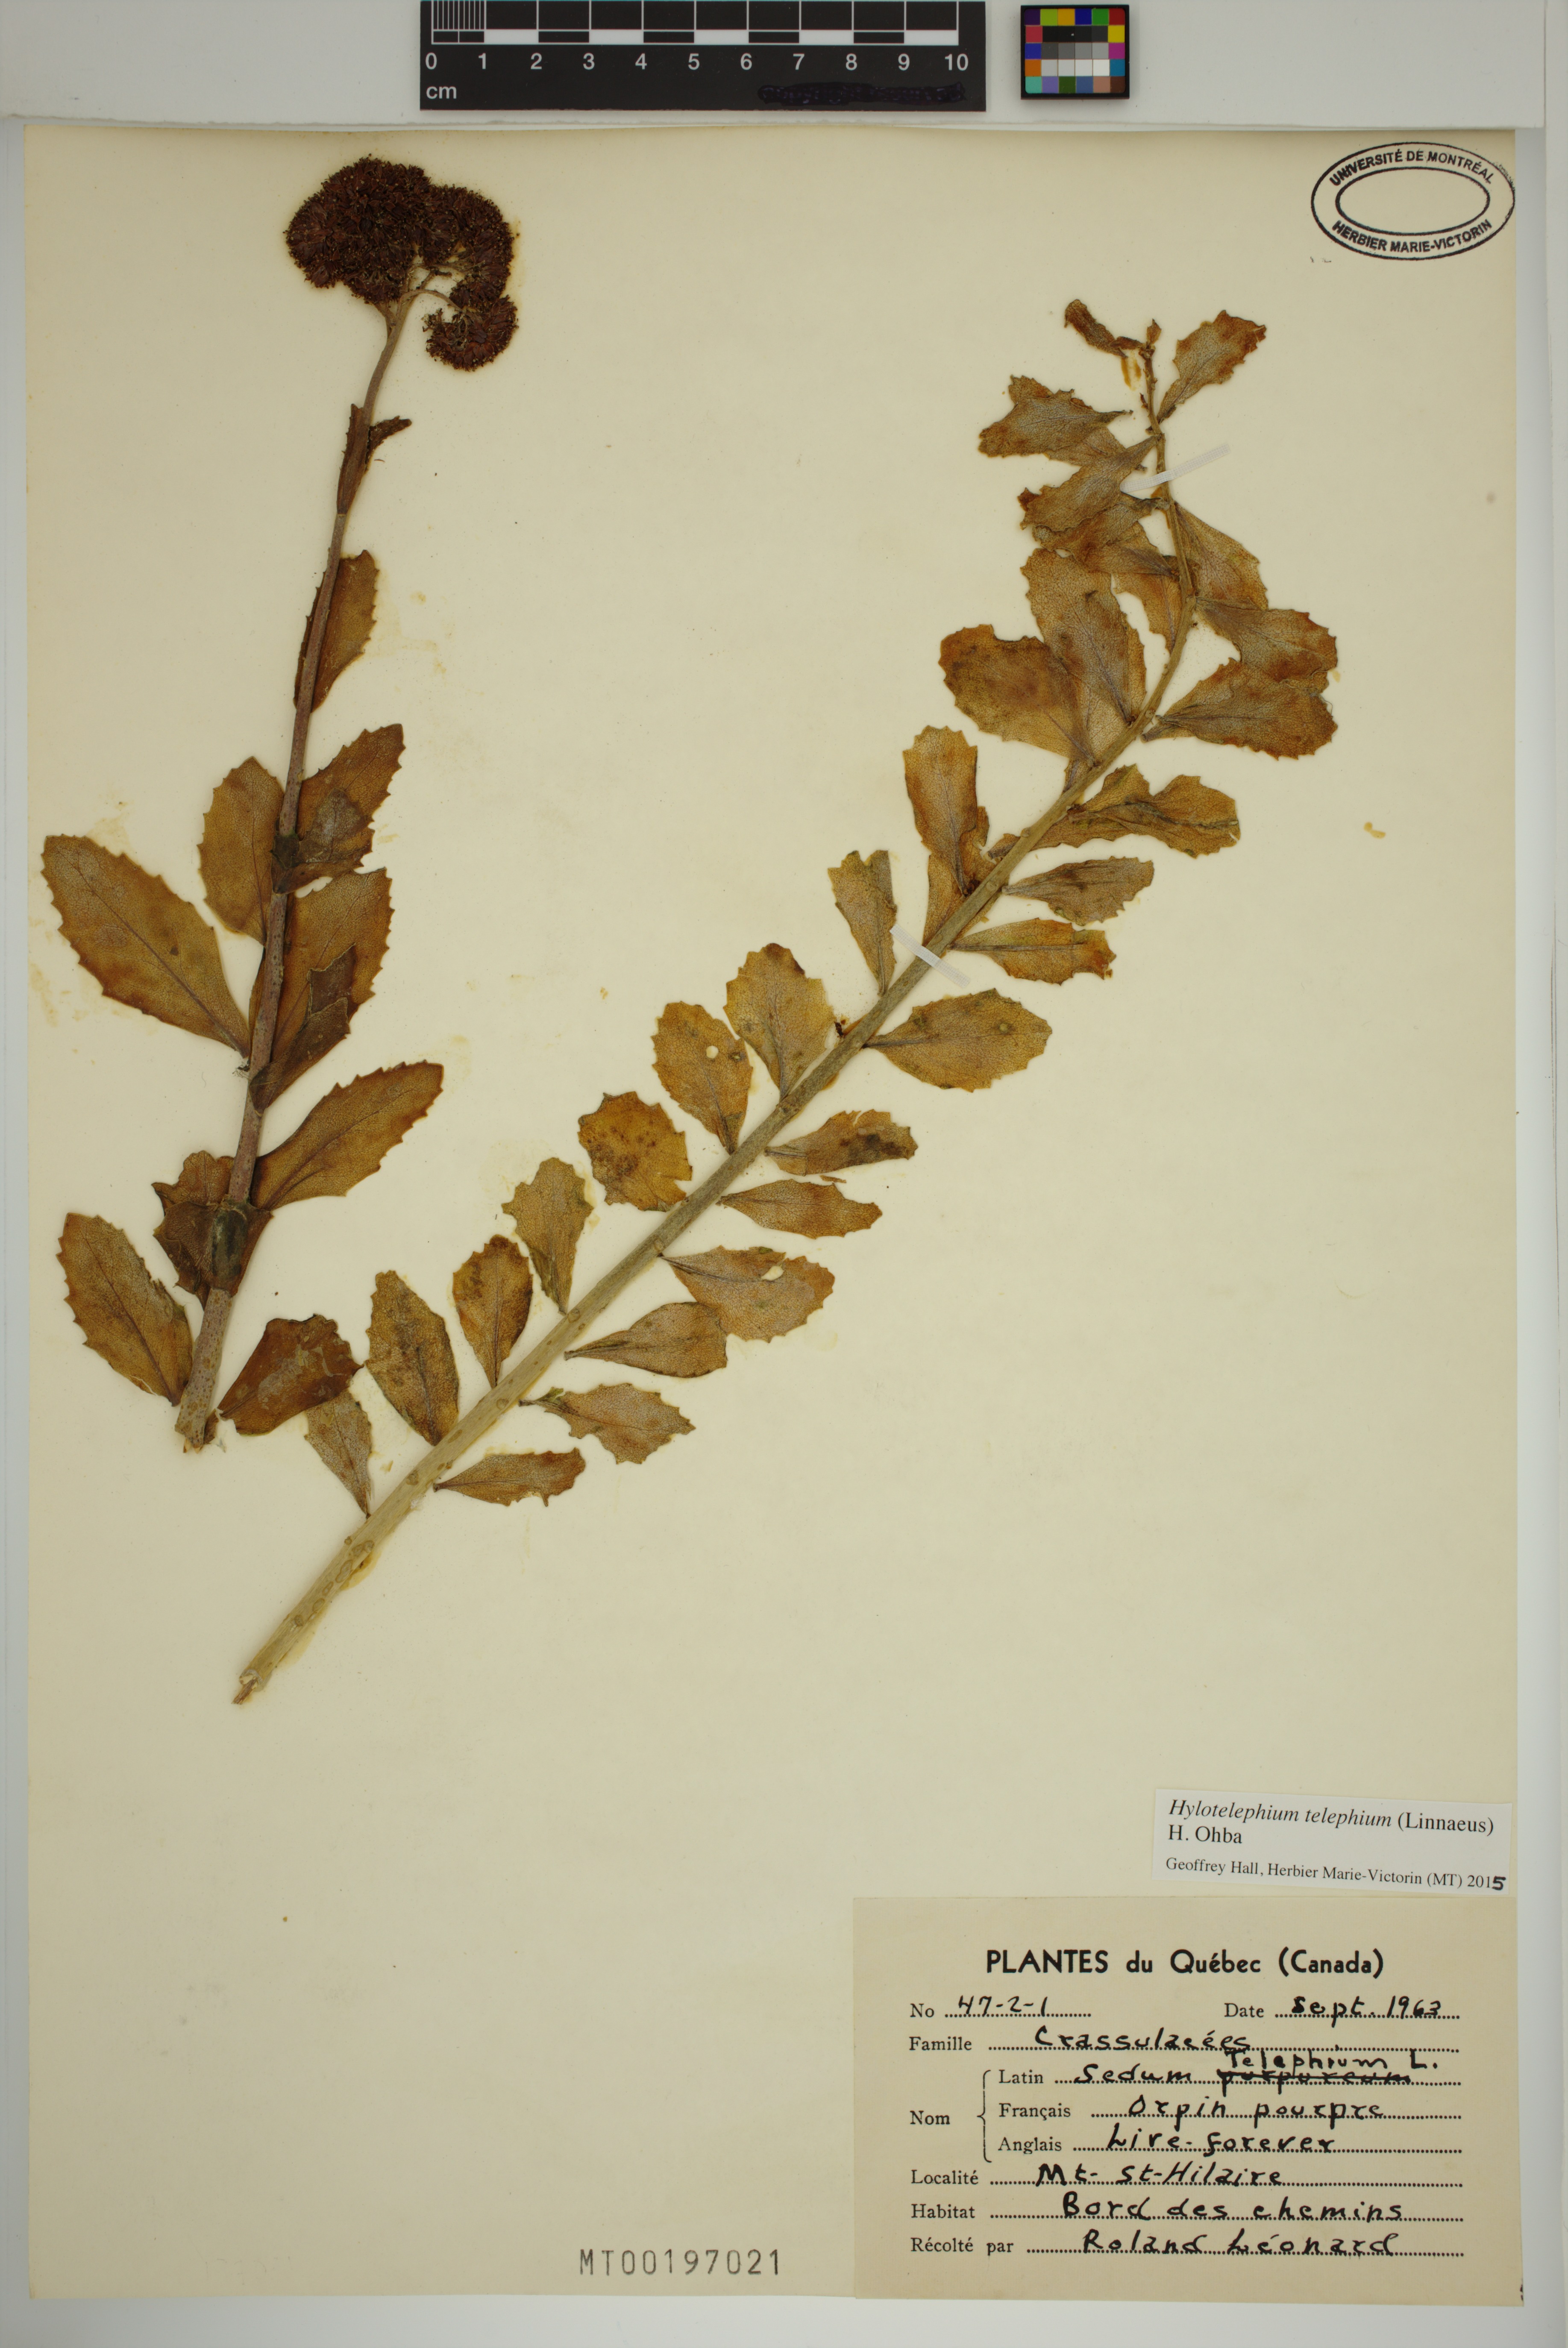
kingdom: Plantae
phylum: Tracheophyta
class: Magnoliopsida
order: Saxifragales
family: Crassulaceae
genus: Hylotelephium
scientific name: Hylotelephium telephium
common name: Live-forever
